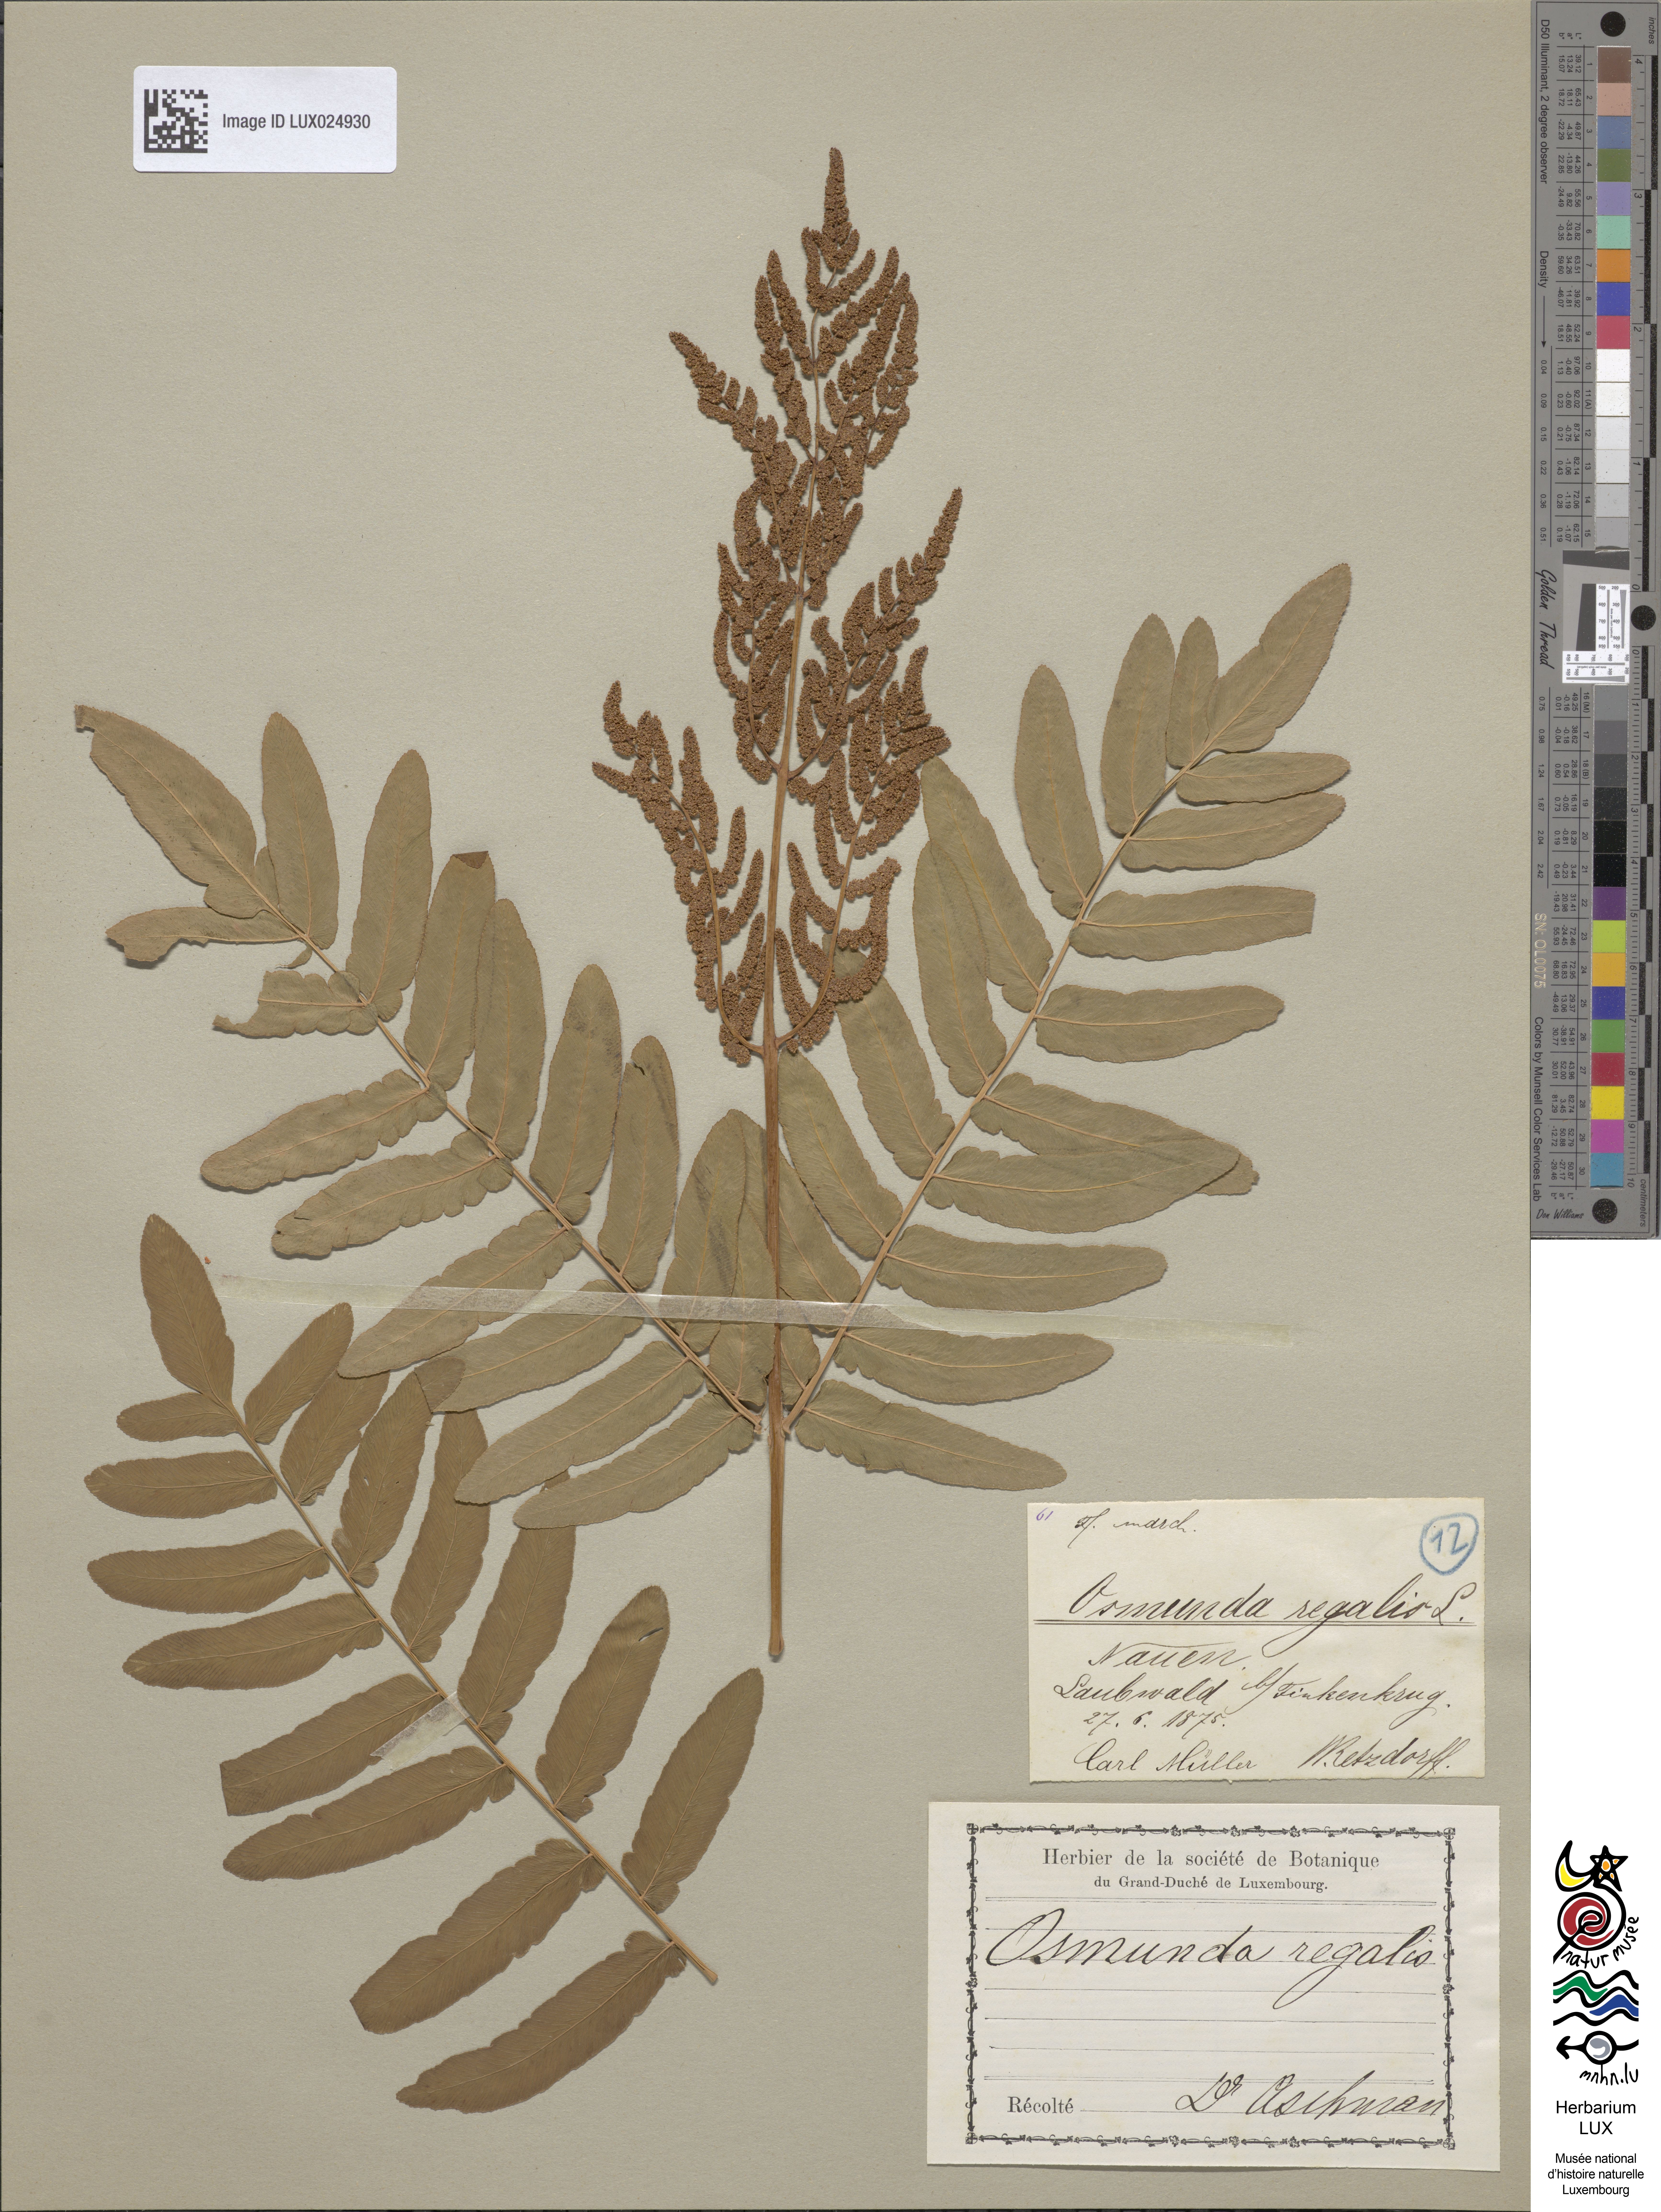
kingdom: Plantae
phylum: Tracheophyta
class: Polypodiopsida
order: Osmundales
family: Osmundaceae
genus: Osmunda
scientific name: Osmunda regalis
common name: Royal fern
